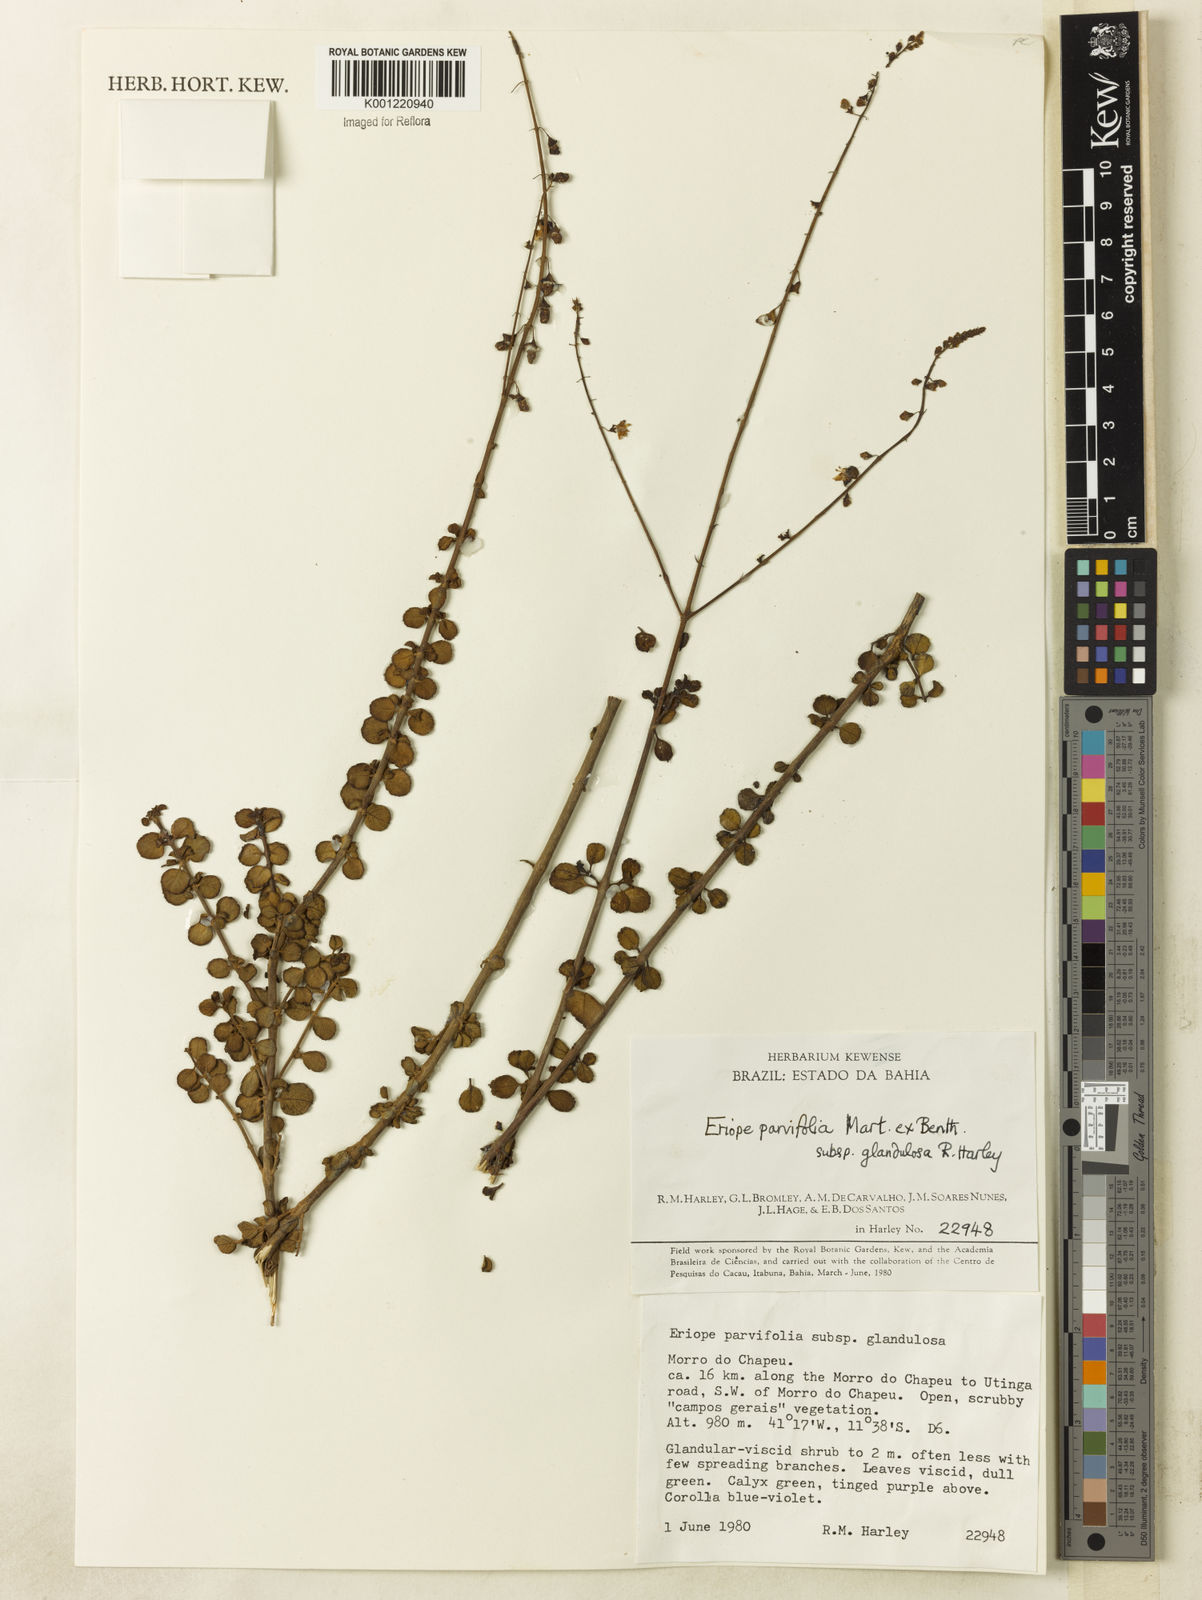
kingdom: Plantae
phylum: Tracheophyta
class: Magnoliopsida
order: Lamiales
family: Lamiaceae
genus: Eriope
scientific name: Eriope glandulosa
